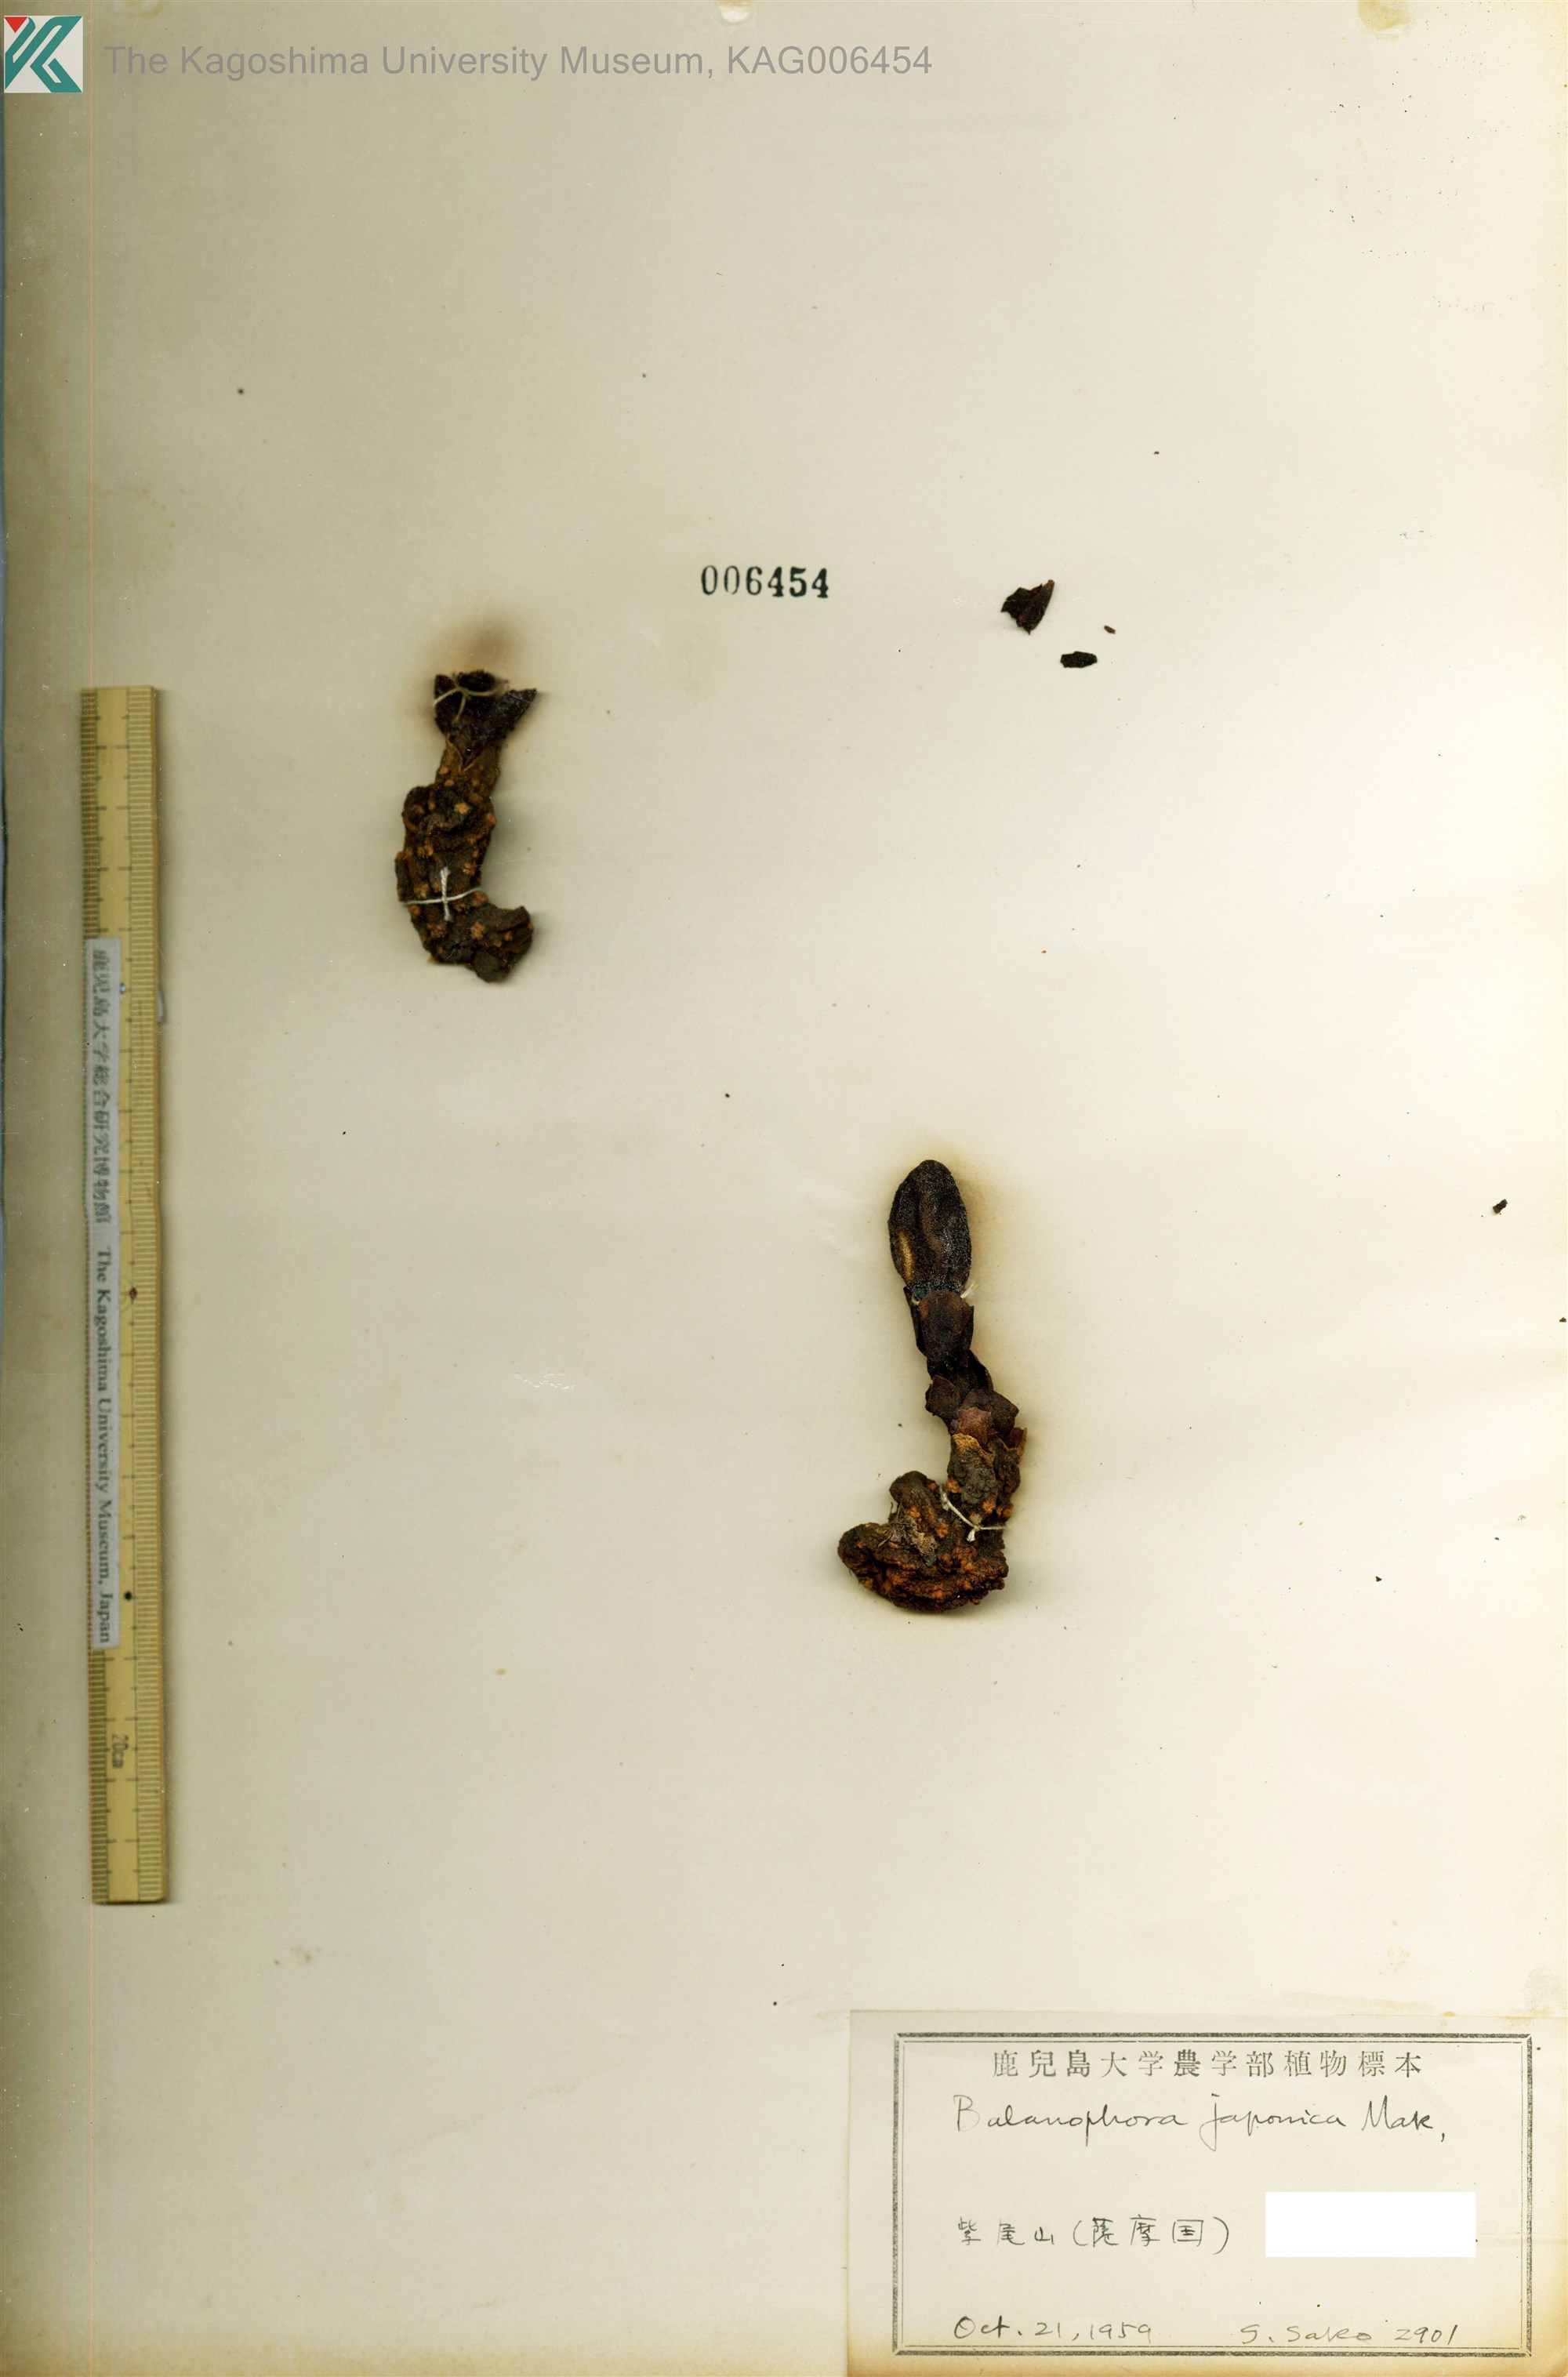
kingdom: Plantae
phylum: Tracheophyta
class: Magnoliopsida
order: Santalales
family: Balanophoraceae
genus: Balanophora
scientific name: Balanophora japonica
